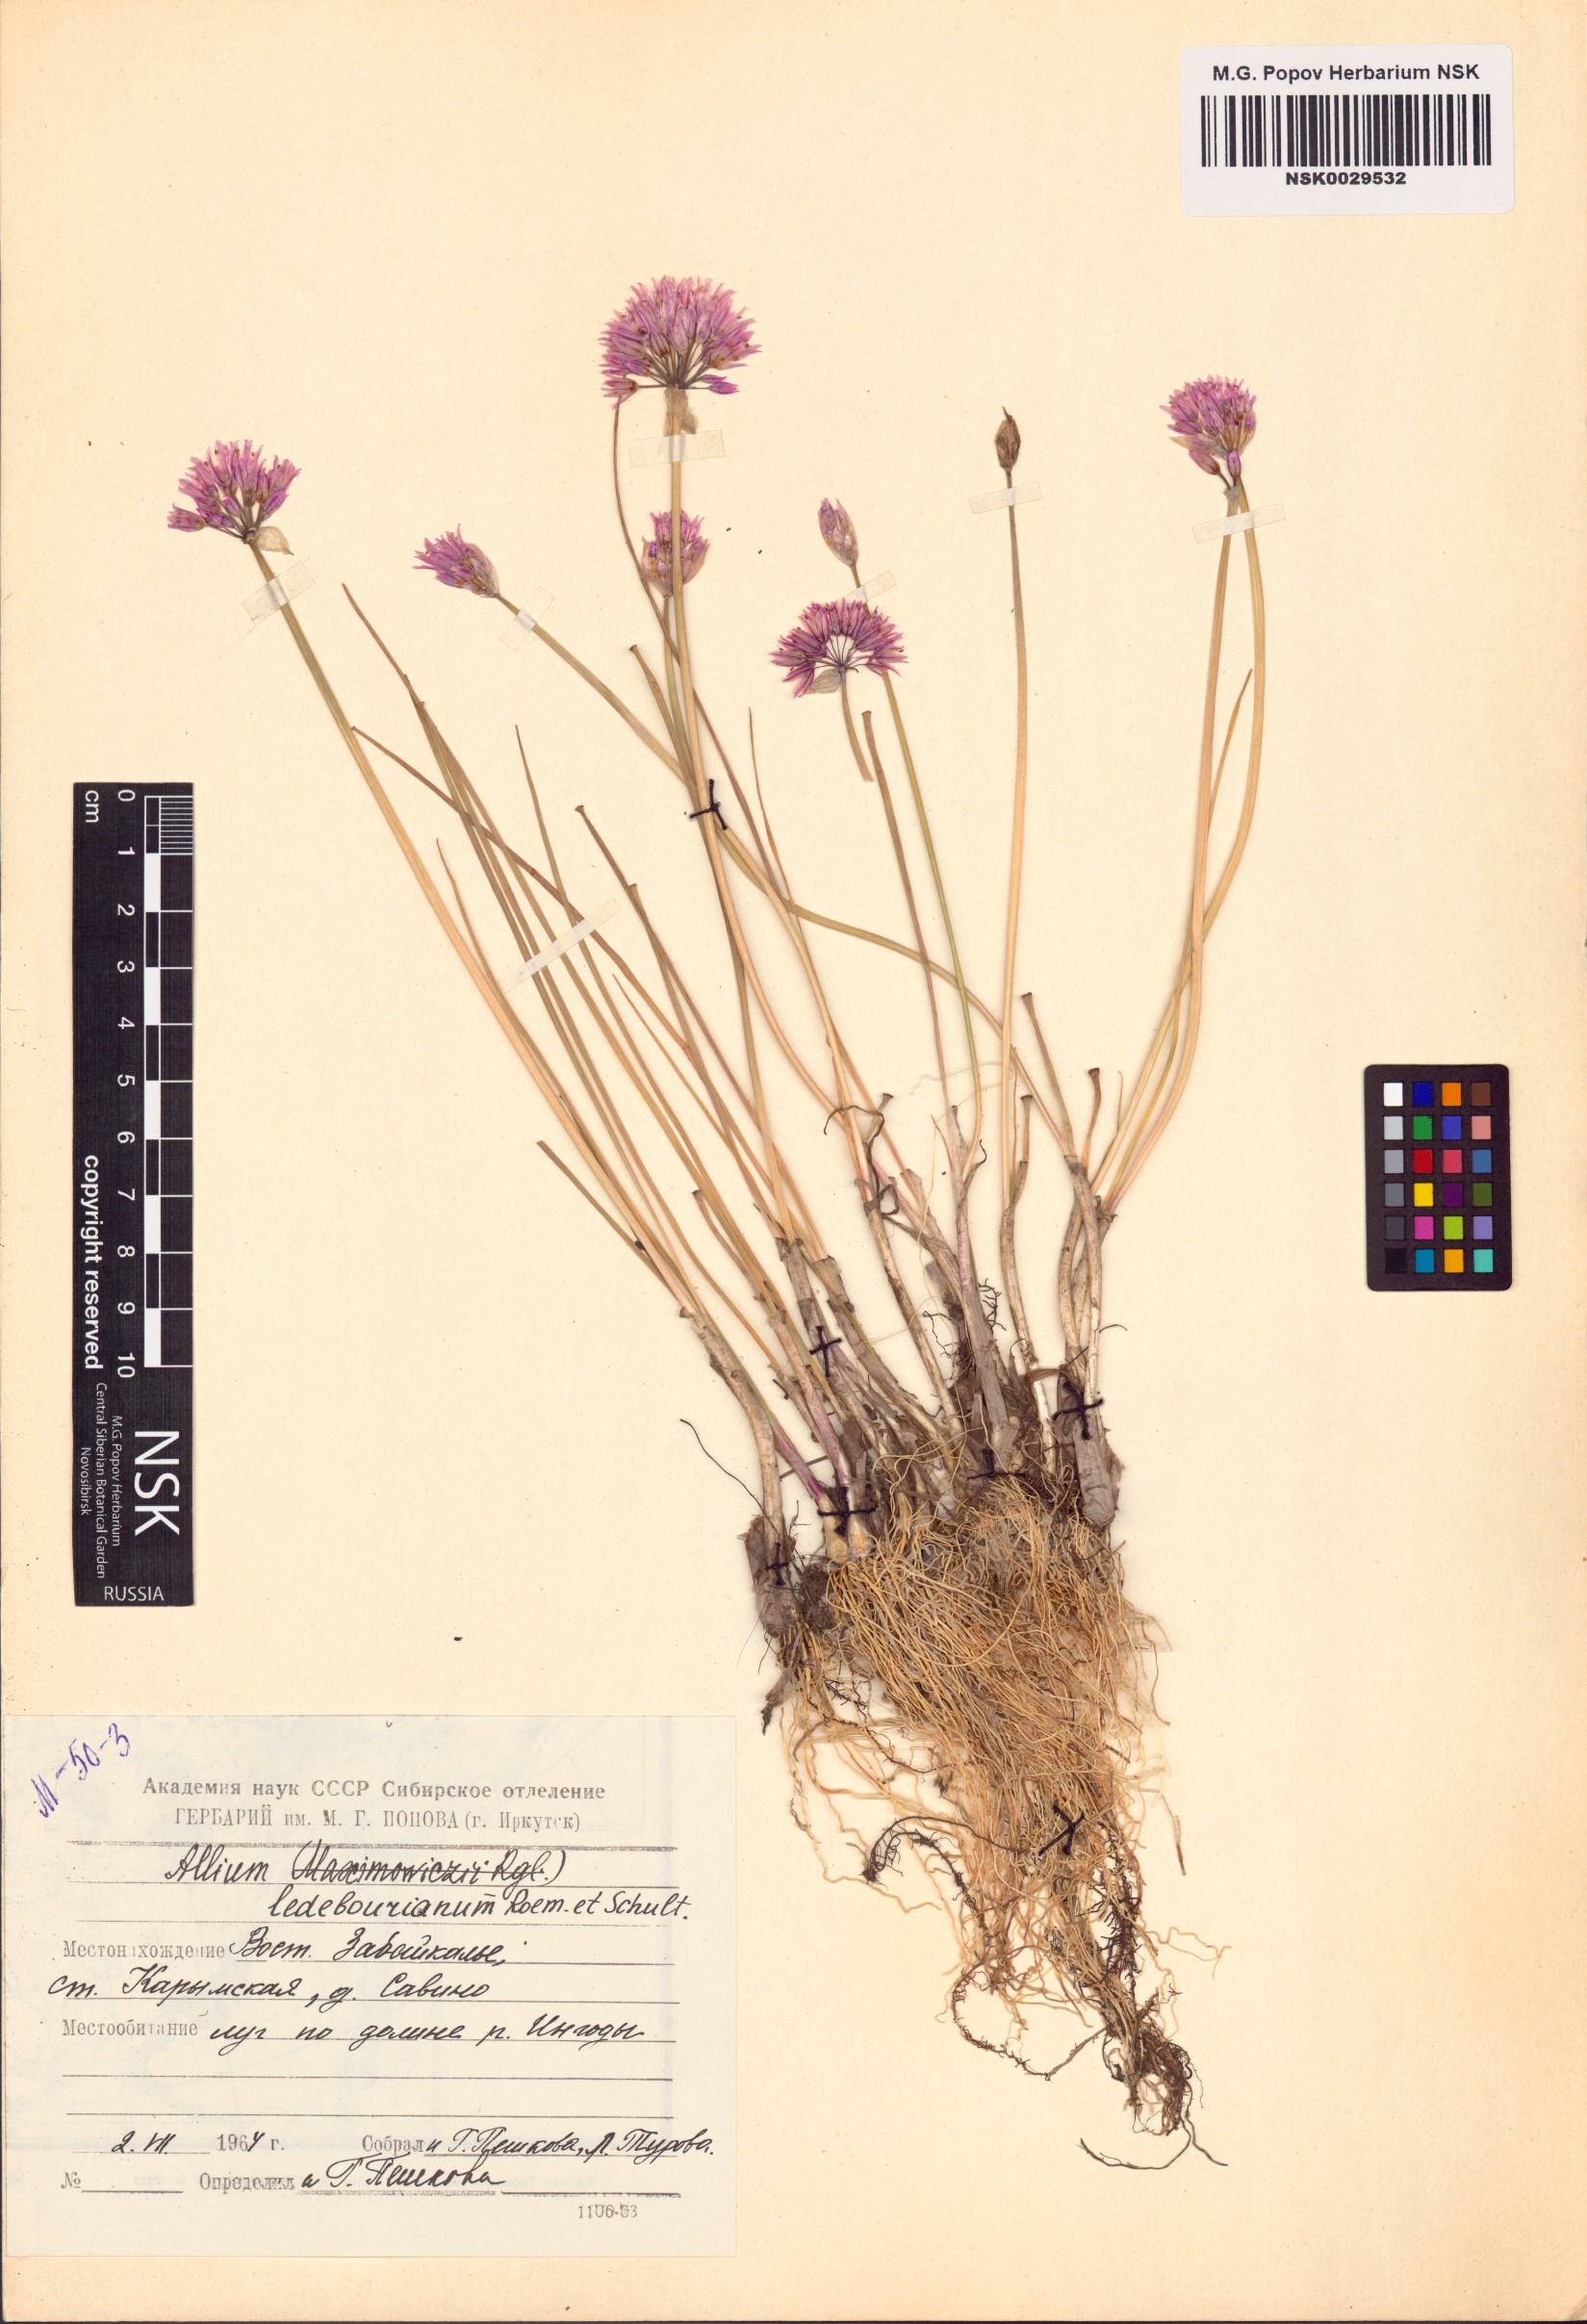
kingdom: Plantae
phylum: Tracheophyta
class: Liliopsida
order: Asparagales
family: Amaryllidaceae
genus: Allium
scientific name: Allium ledebourianum
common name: Ledebour chive
